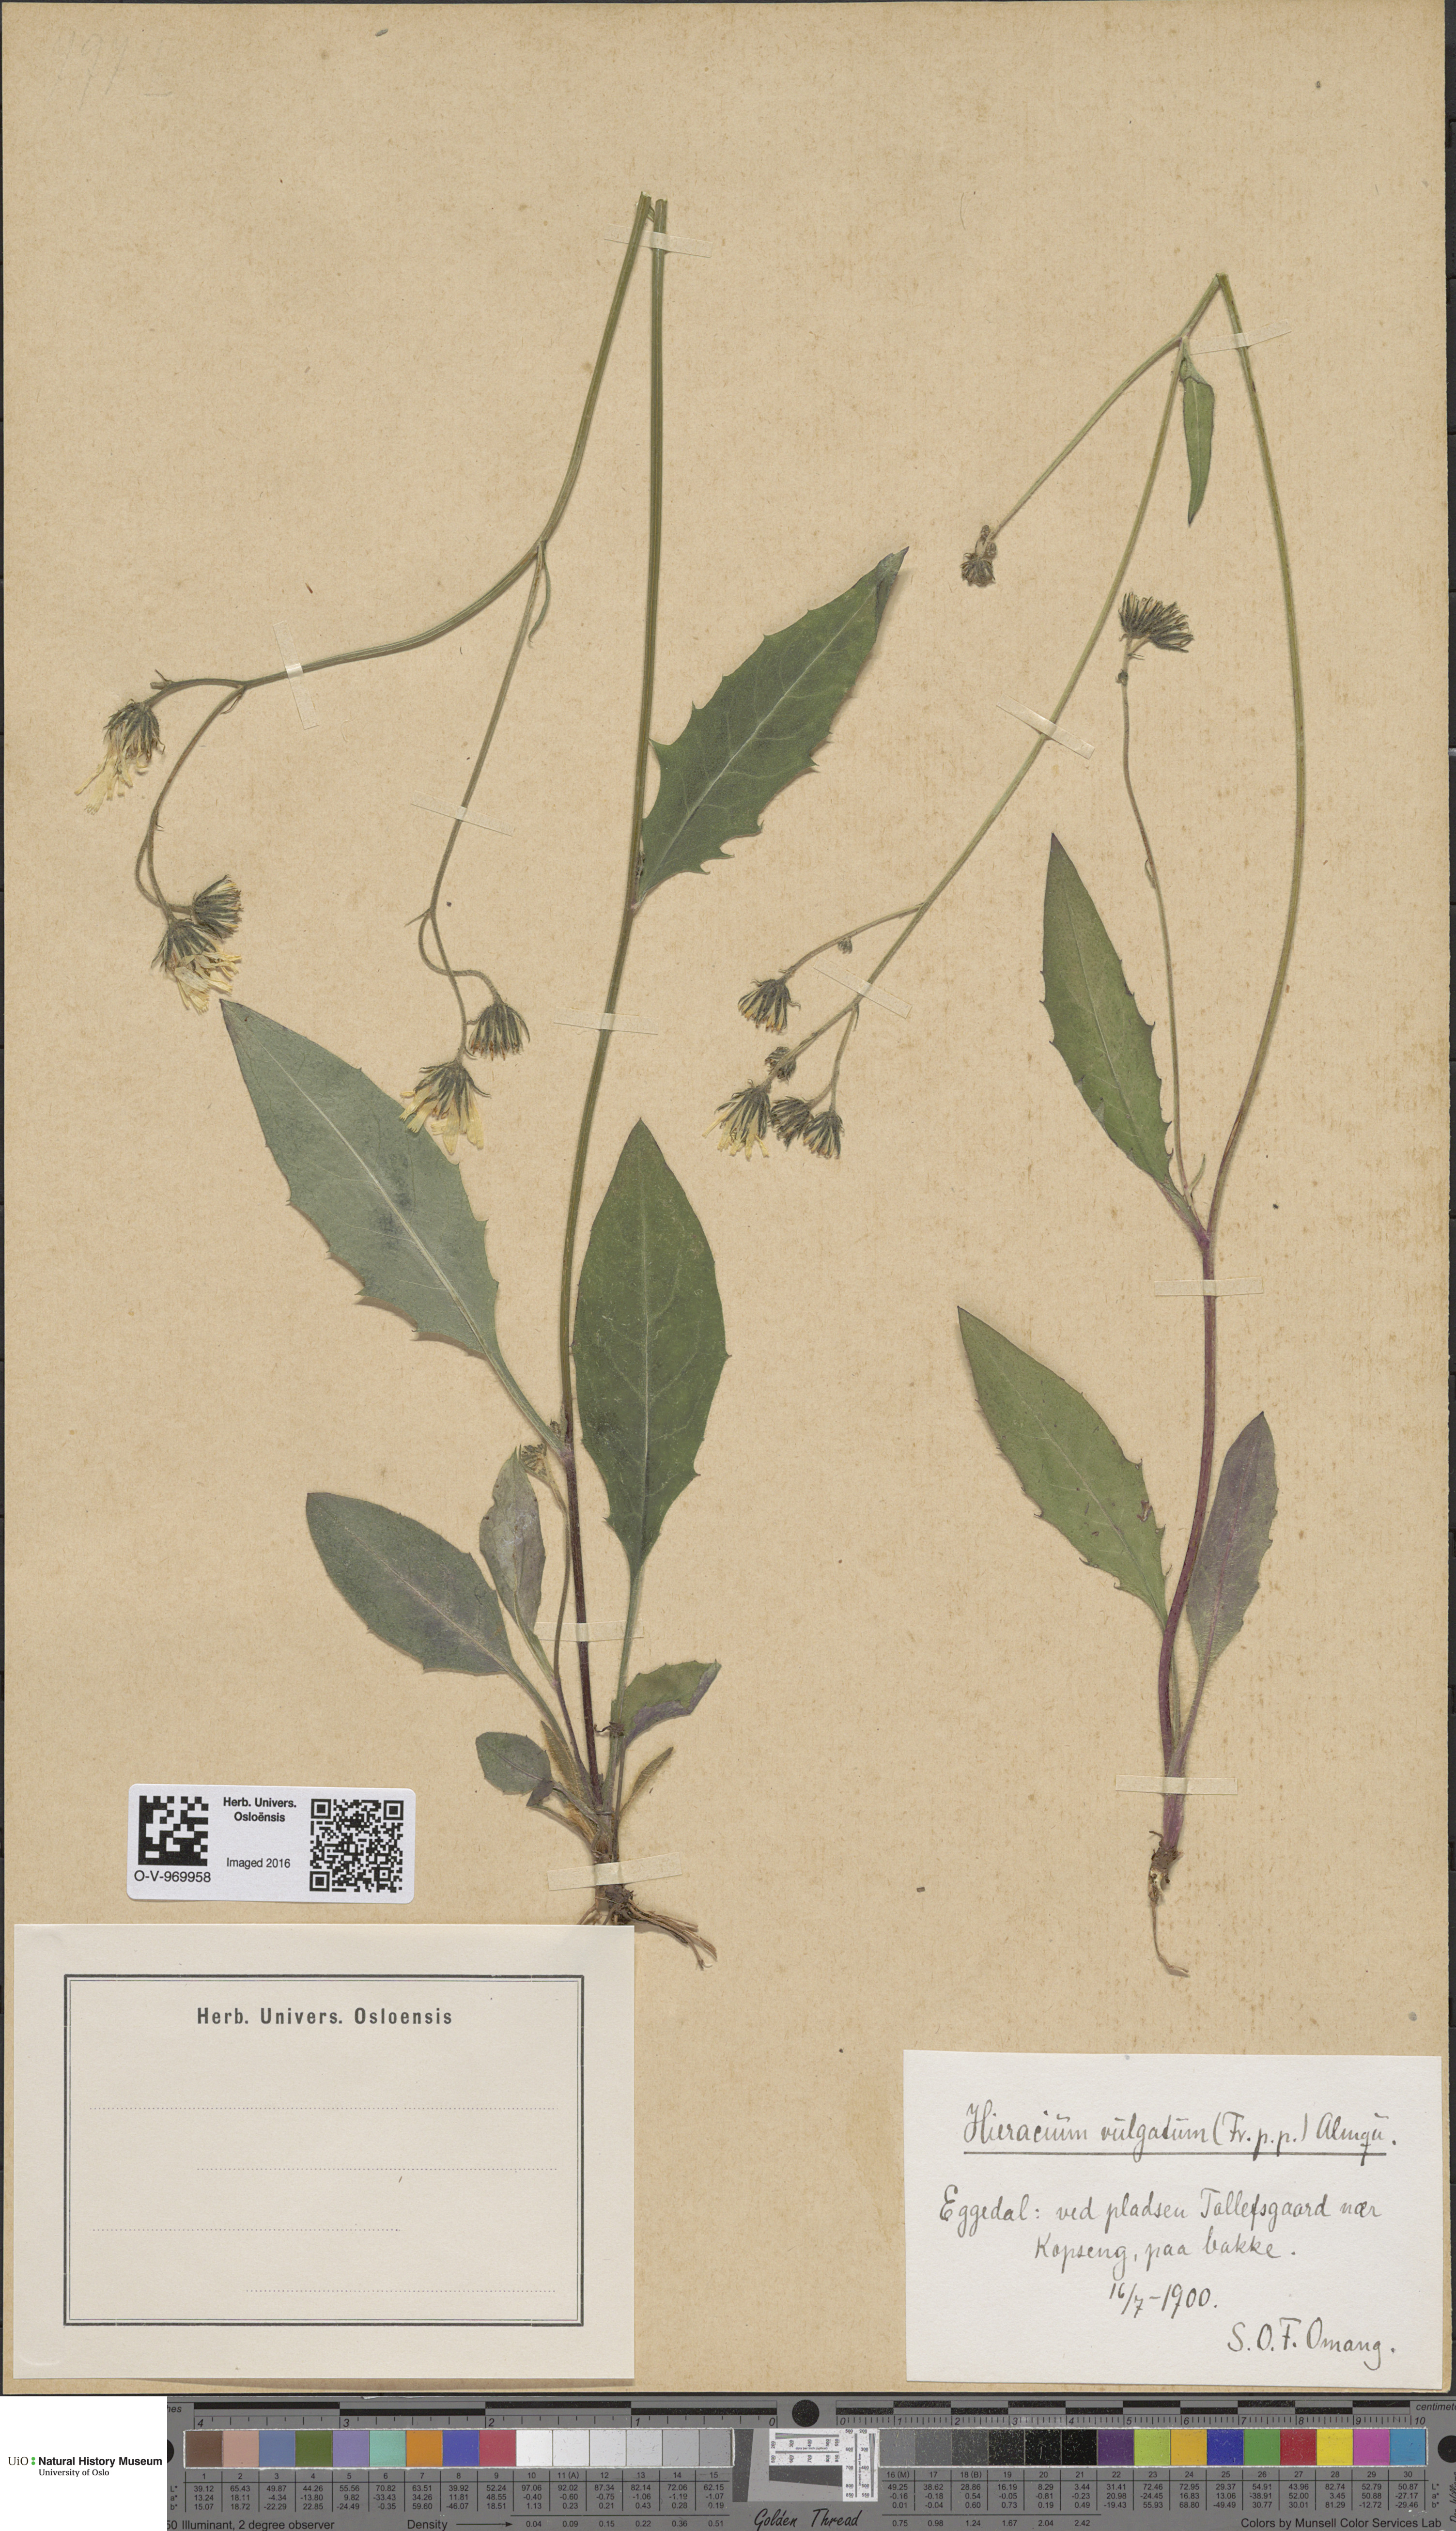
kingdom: Plantae
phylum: Tracheophyta
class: Magnoliopsida
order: Asterales
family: Asteraceae
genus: Hieracium
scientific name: Hieracium vulgatum
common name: Common hawkweed
